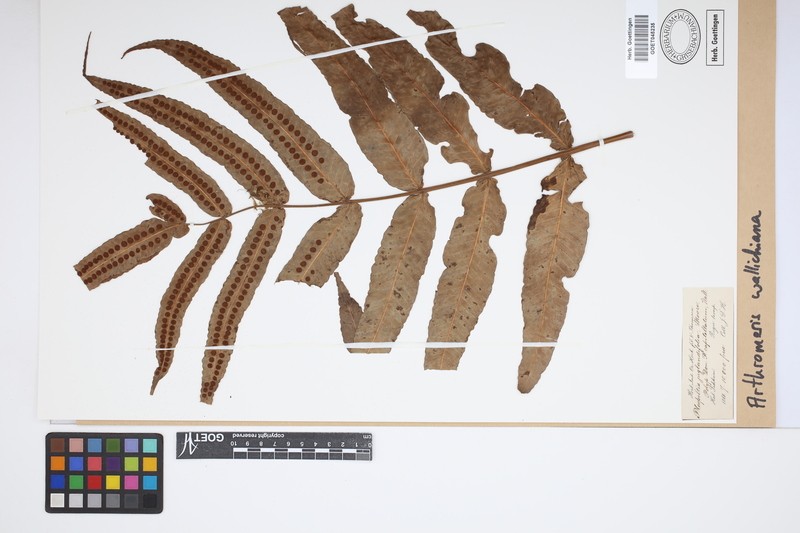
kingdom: Plantae
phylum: Tracheophyta
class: Polypodiopsida
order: Polypodiales
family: Polypodiaceae
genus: Selliguea
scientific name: Selliguea capitellata
